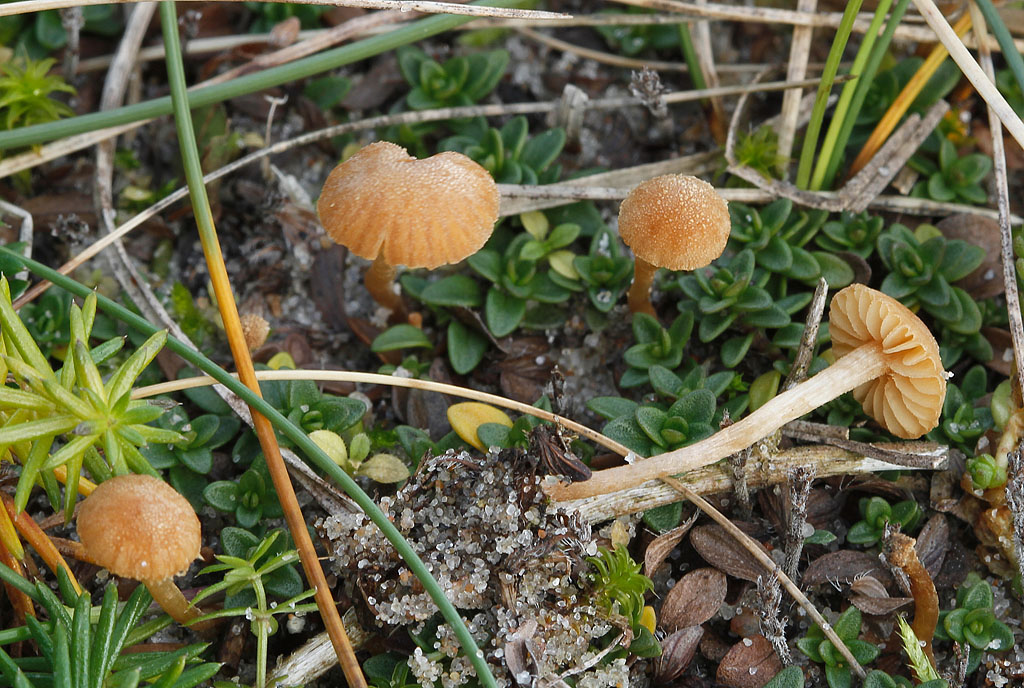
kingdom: Fungi
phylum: Basidiomycota
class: Agaricomycetes
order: Agaricales
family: Tubariaceae
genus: Flammulaster
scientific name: Flammulaster carpophilus
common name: bøge-grynskælhat
